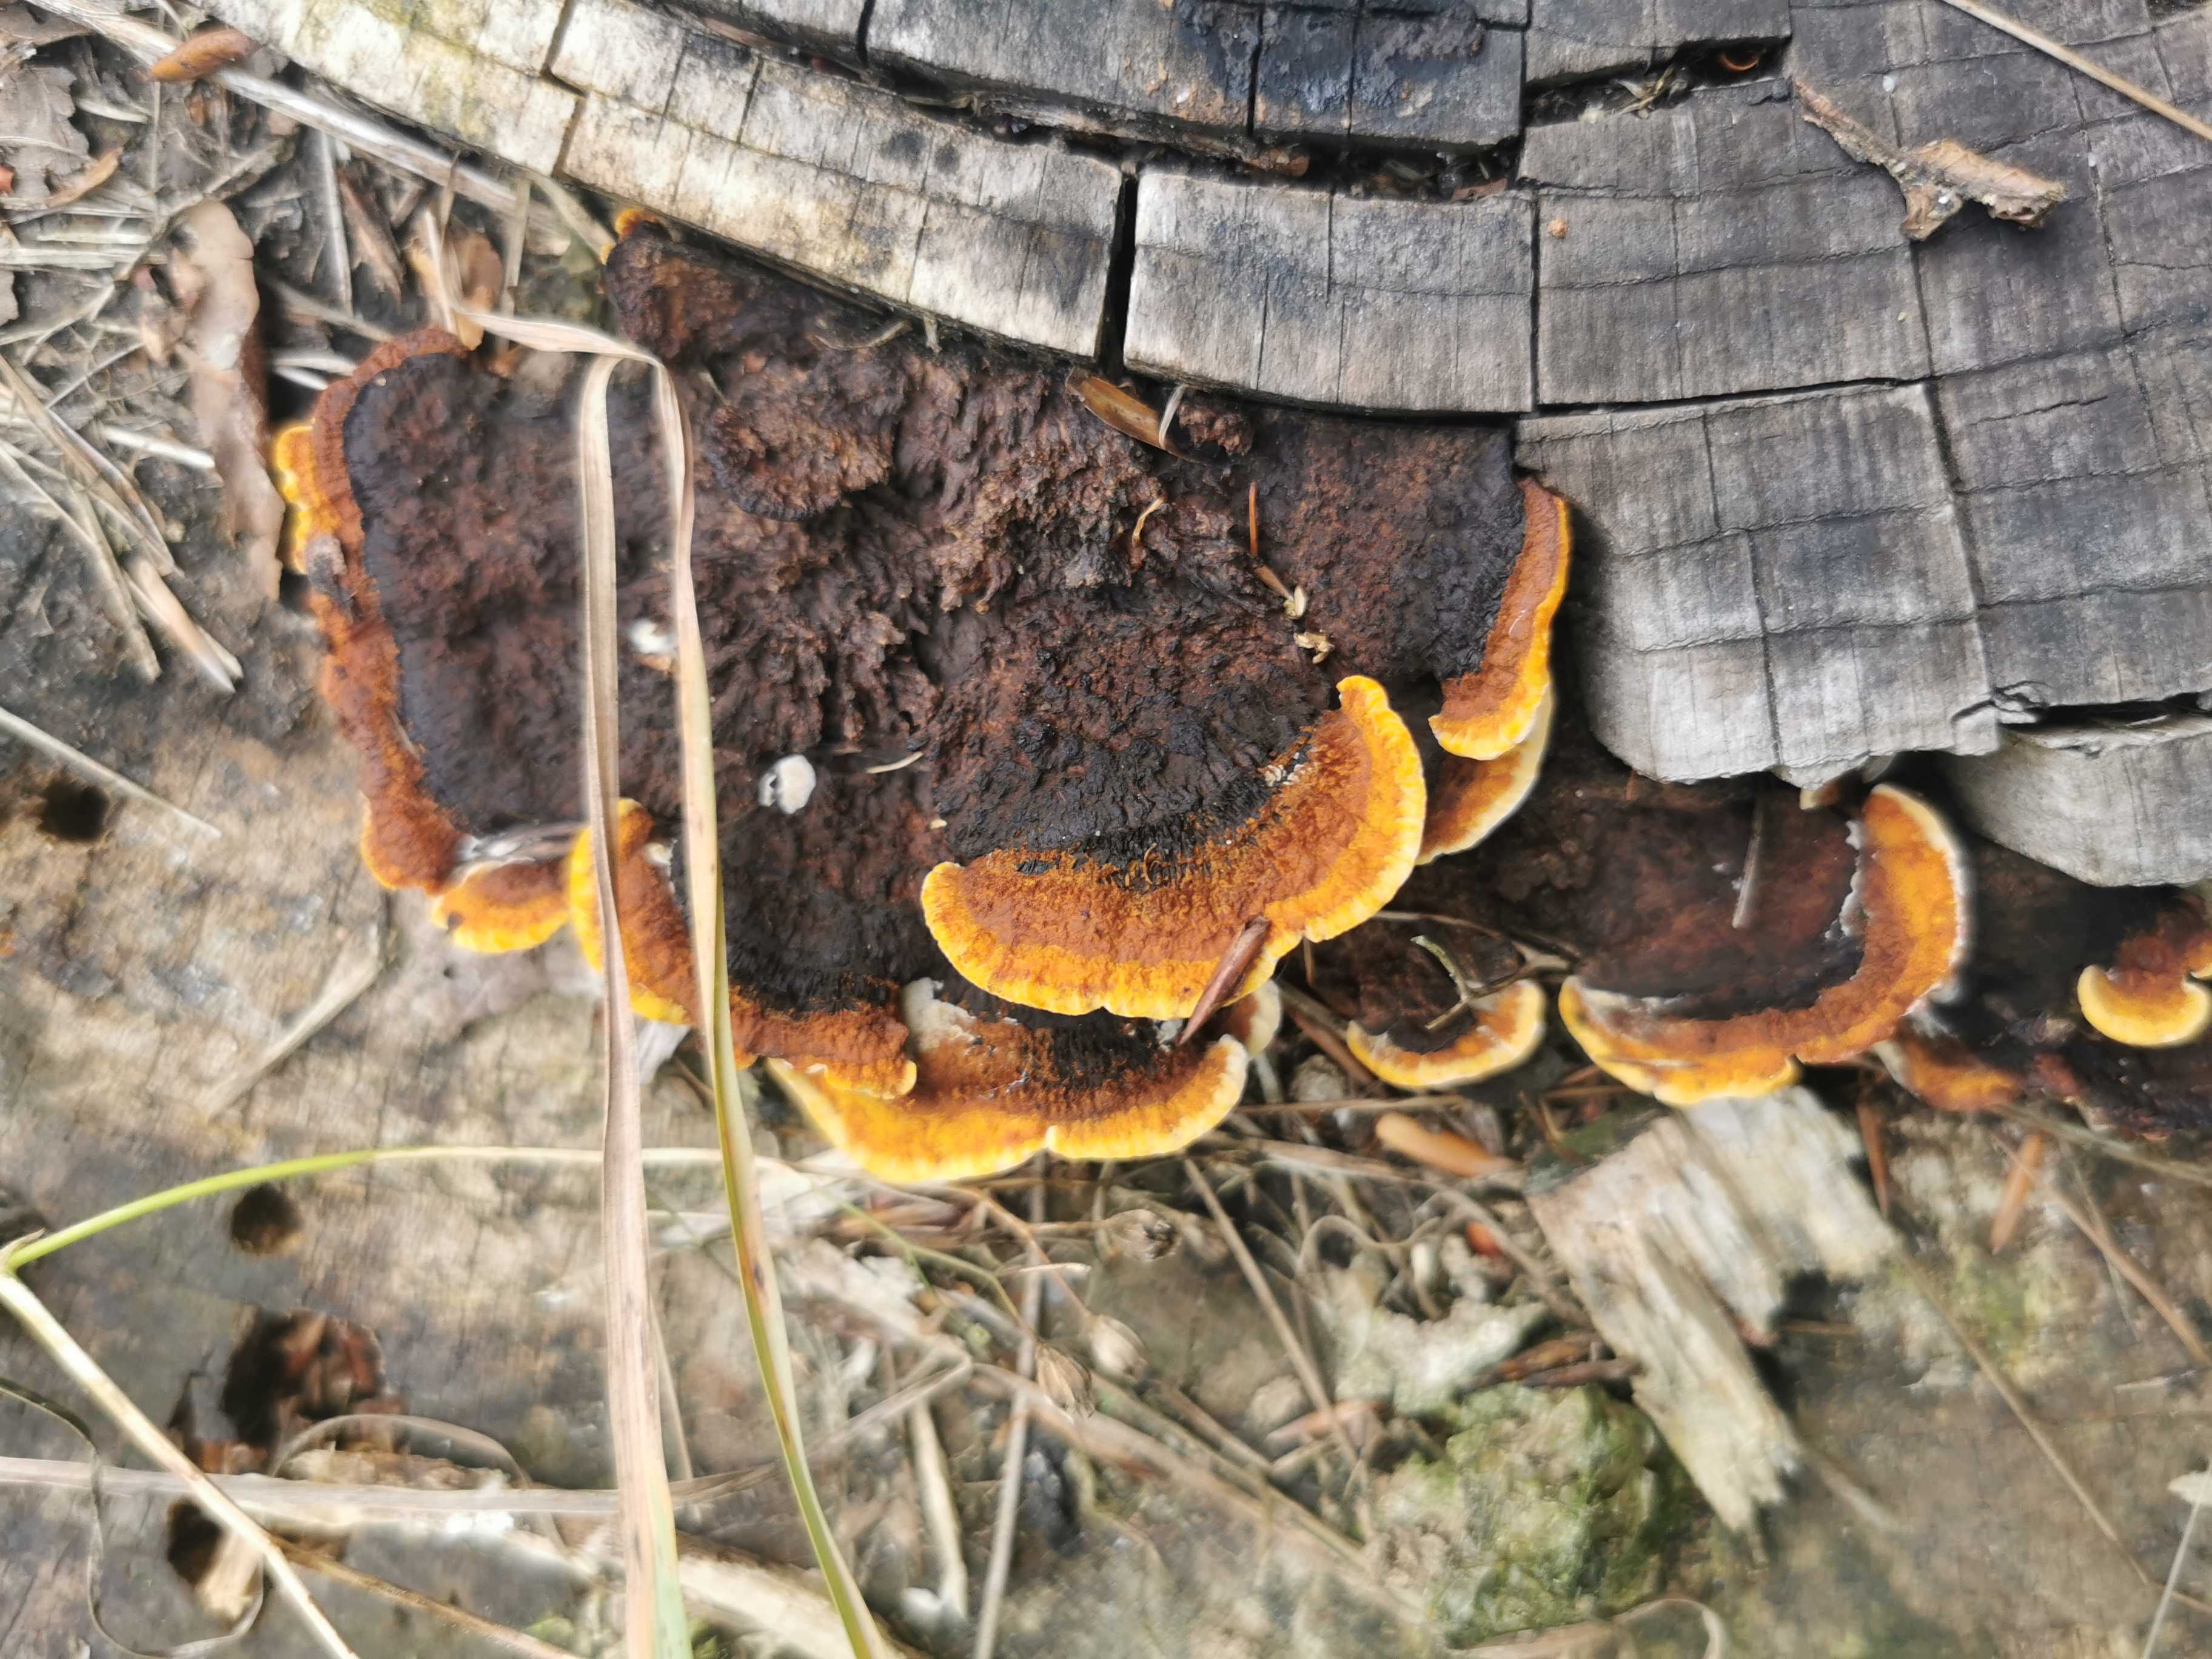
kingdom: Fungi
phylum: Basidiomycota
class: Agaricomycetes
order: Gloeophyllales
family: Gloeophyllaceae
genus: Gloeophyllum
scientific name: Gloeophyllum sepiarium
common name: fyrre-korkhat
